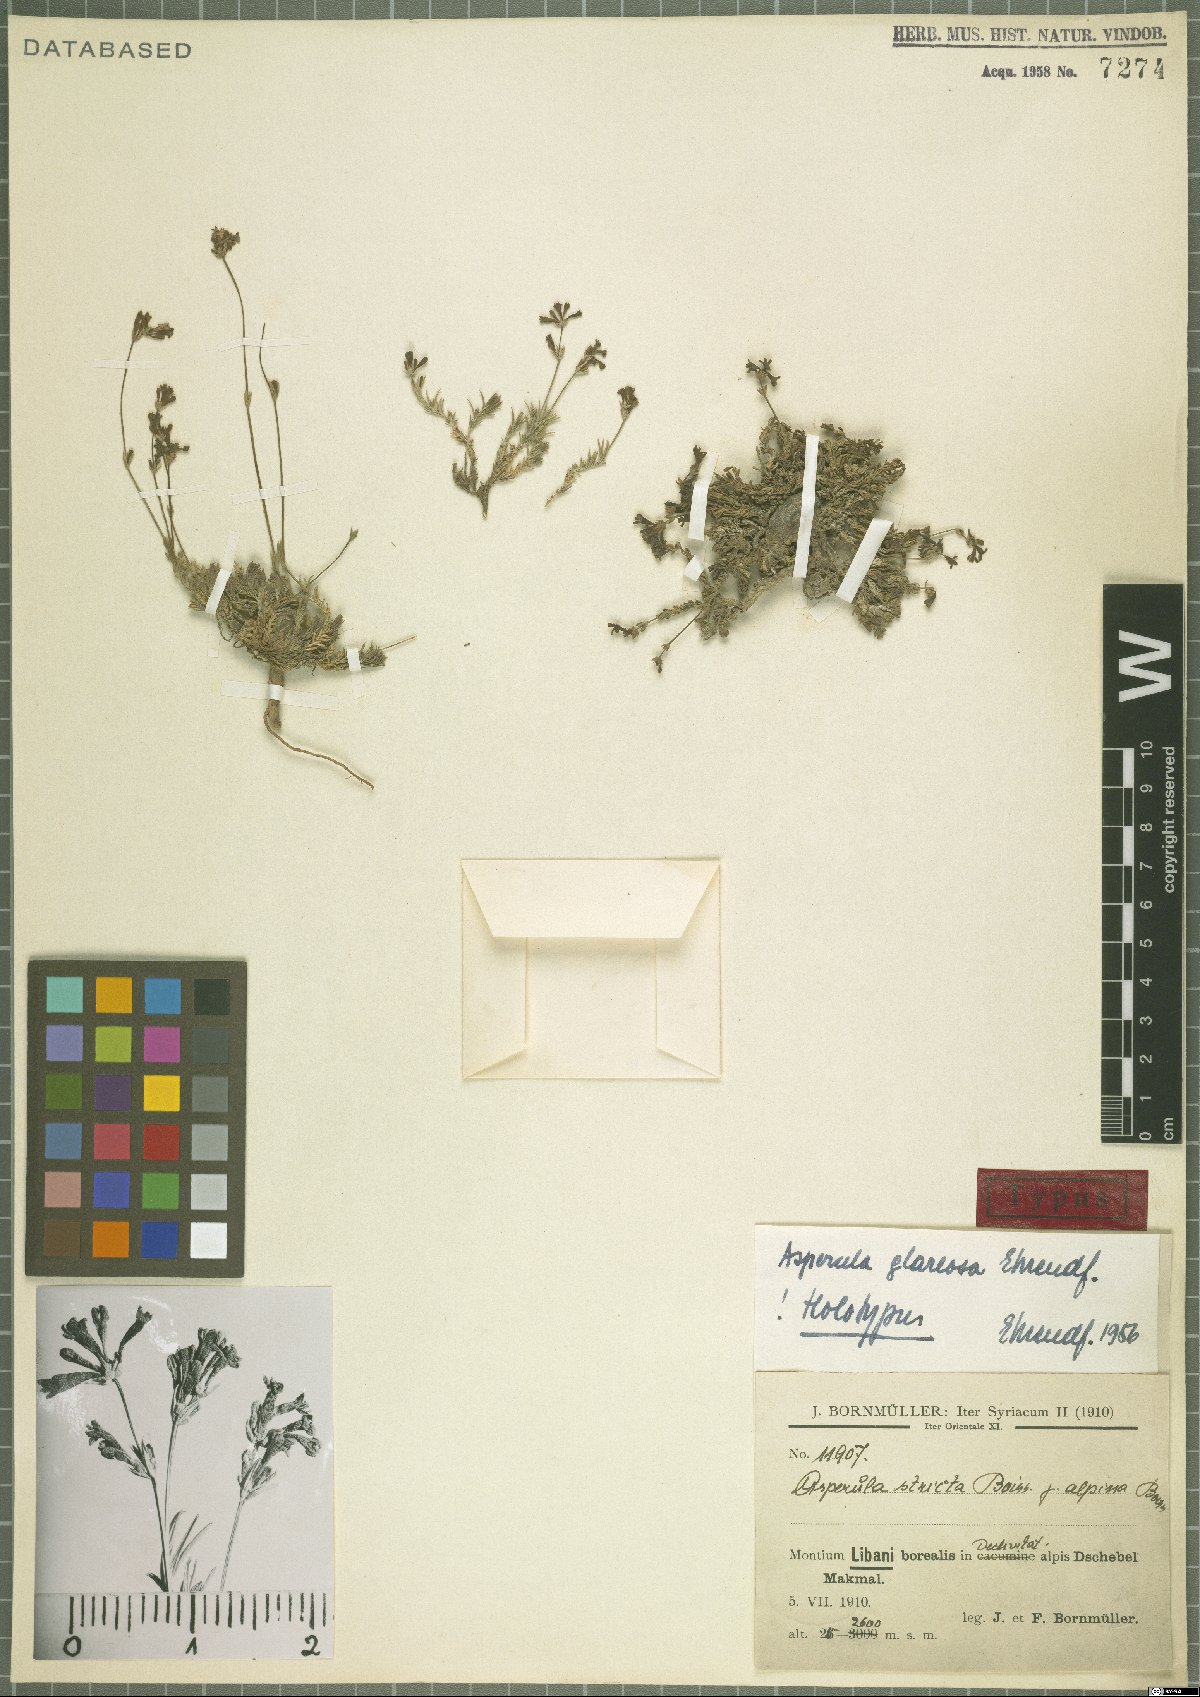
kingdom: Plantae
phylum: Tracheophyta
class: Magnoliopsida
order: Gentianales
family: Rubiaceae
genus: Cynanchica
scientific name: Cynanchica glareosa
